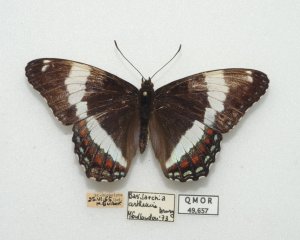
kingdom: Animalia
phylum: Arthropoda
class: Insecta
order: Lepidoptera
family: Nymphalidae
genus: Limenitis
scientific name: Limenitis arthemis
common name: Red-spotted Admiral
